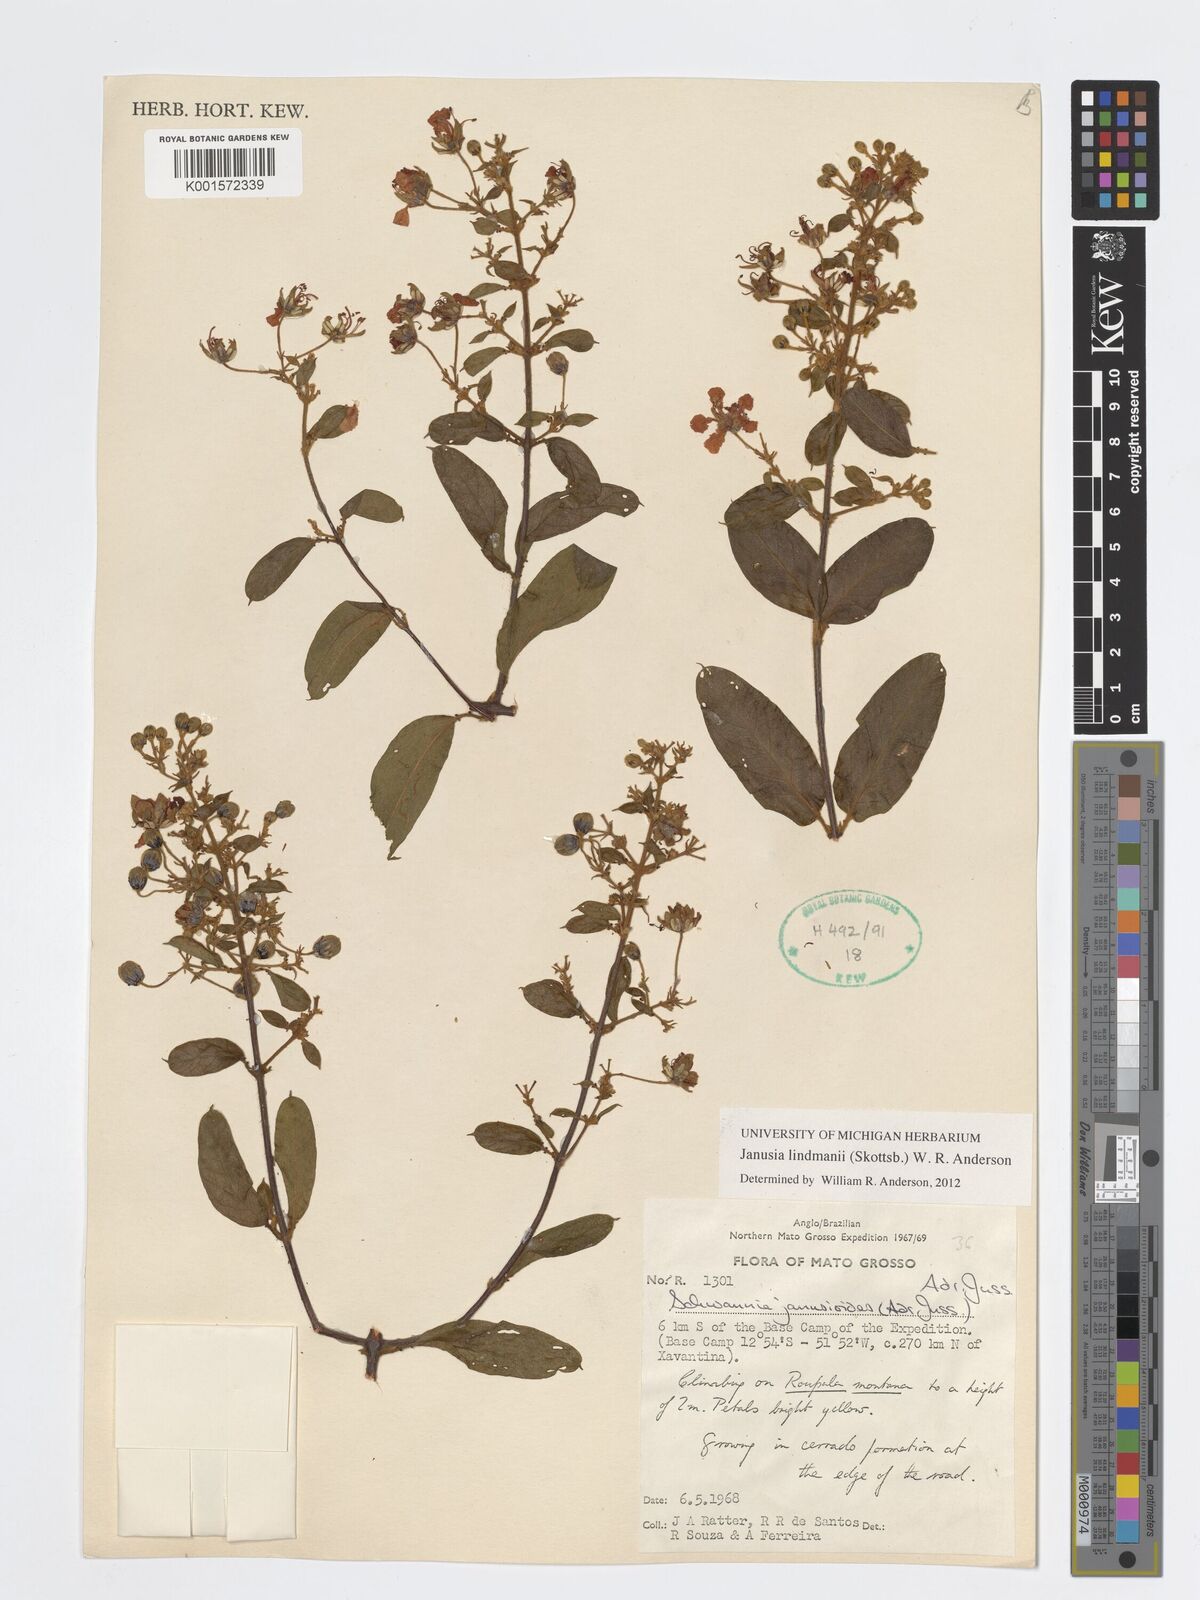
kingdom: Plantae
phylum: Tracheophyta
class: Magnoliopsida
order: Malpighiales
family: Malpighiaceae
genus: Janusia
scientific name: Janusia lindmanii
